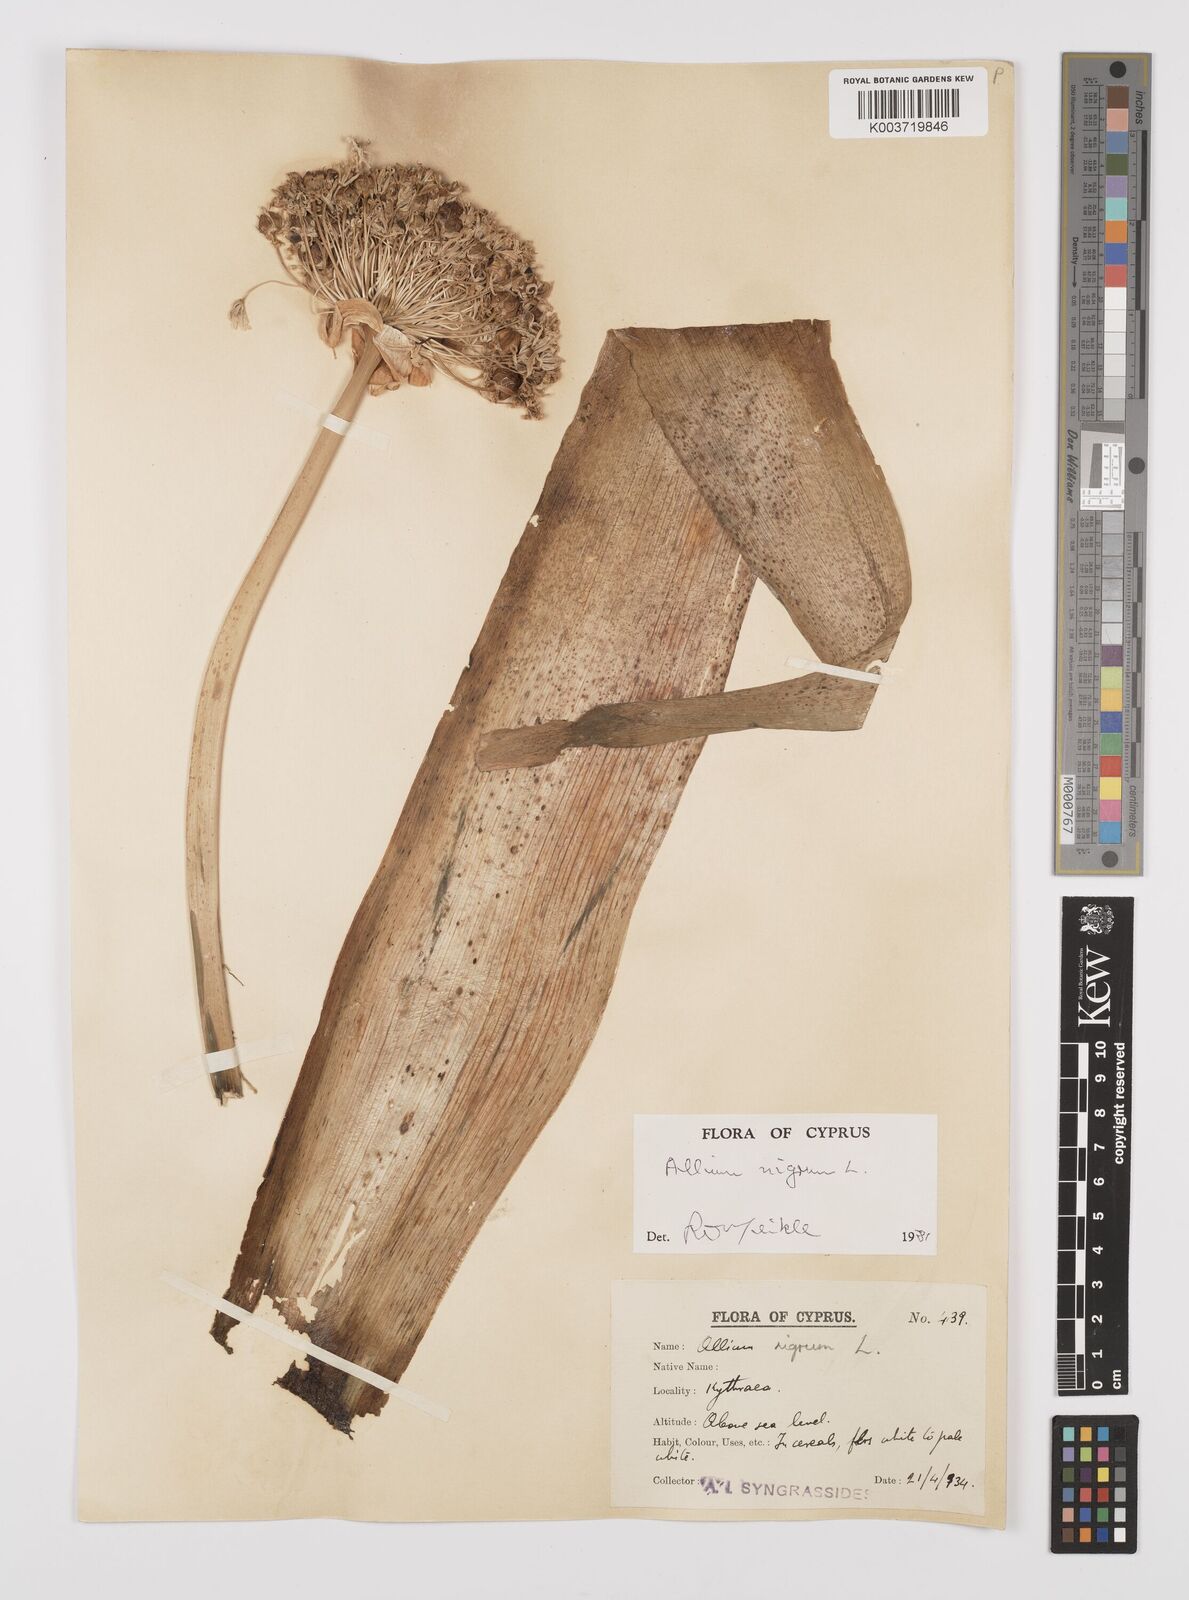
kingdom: Plantae
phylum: Tracheophyta
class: Liliopsida
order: Asparagales
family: Amaryllidaceae
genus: Allium
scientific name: Allium nigrum
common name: Black garlic
